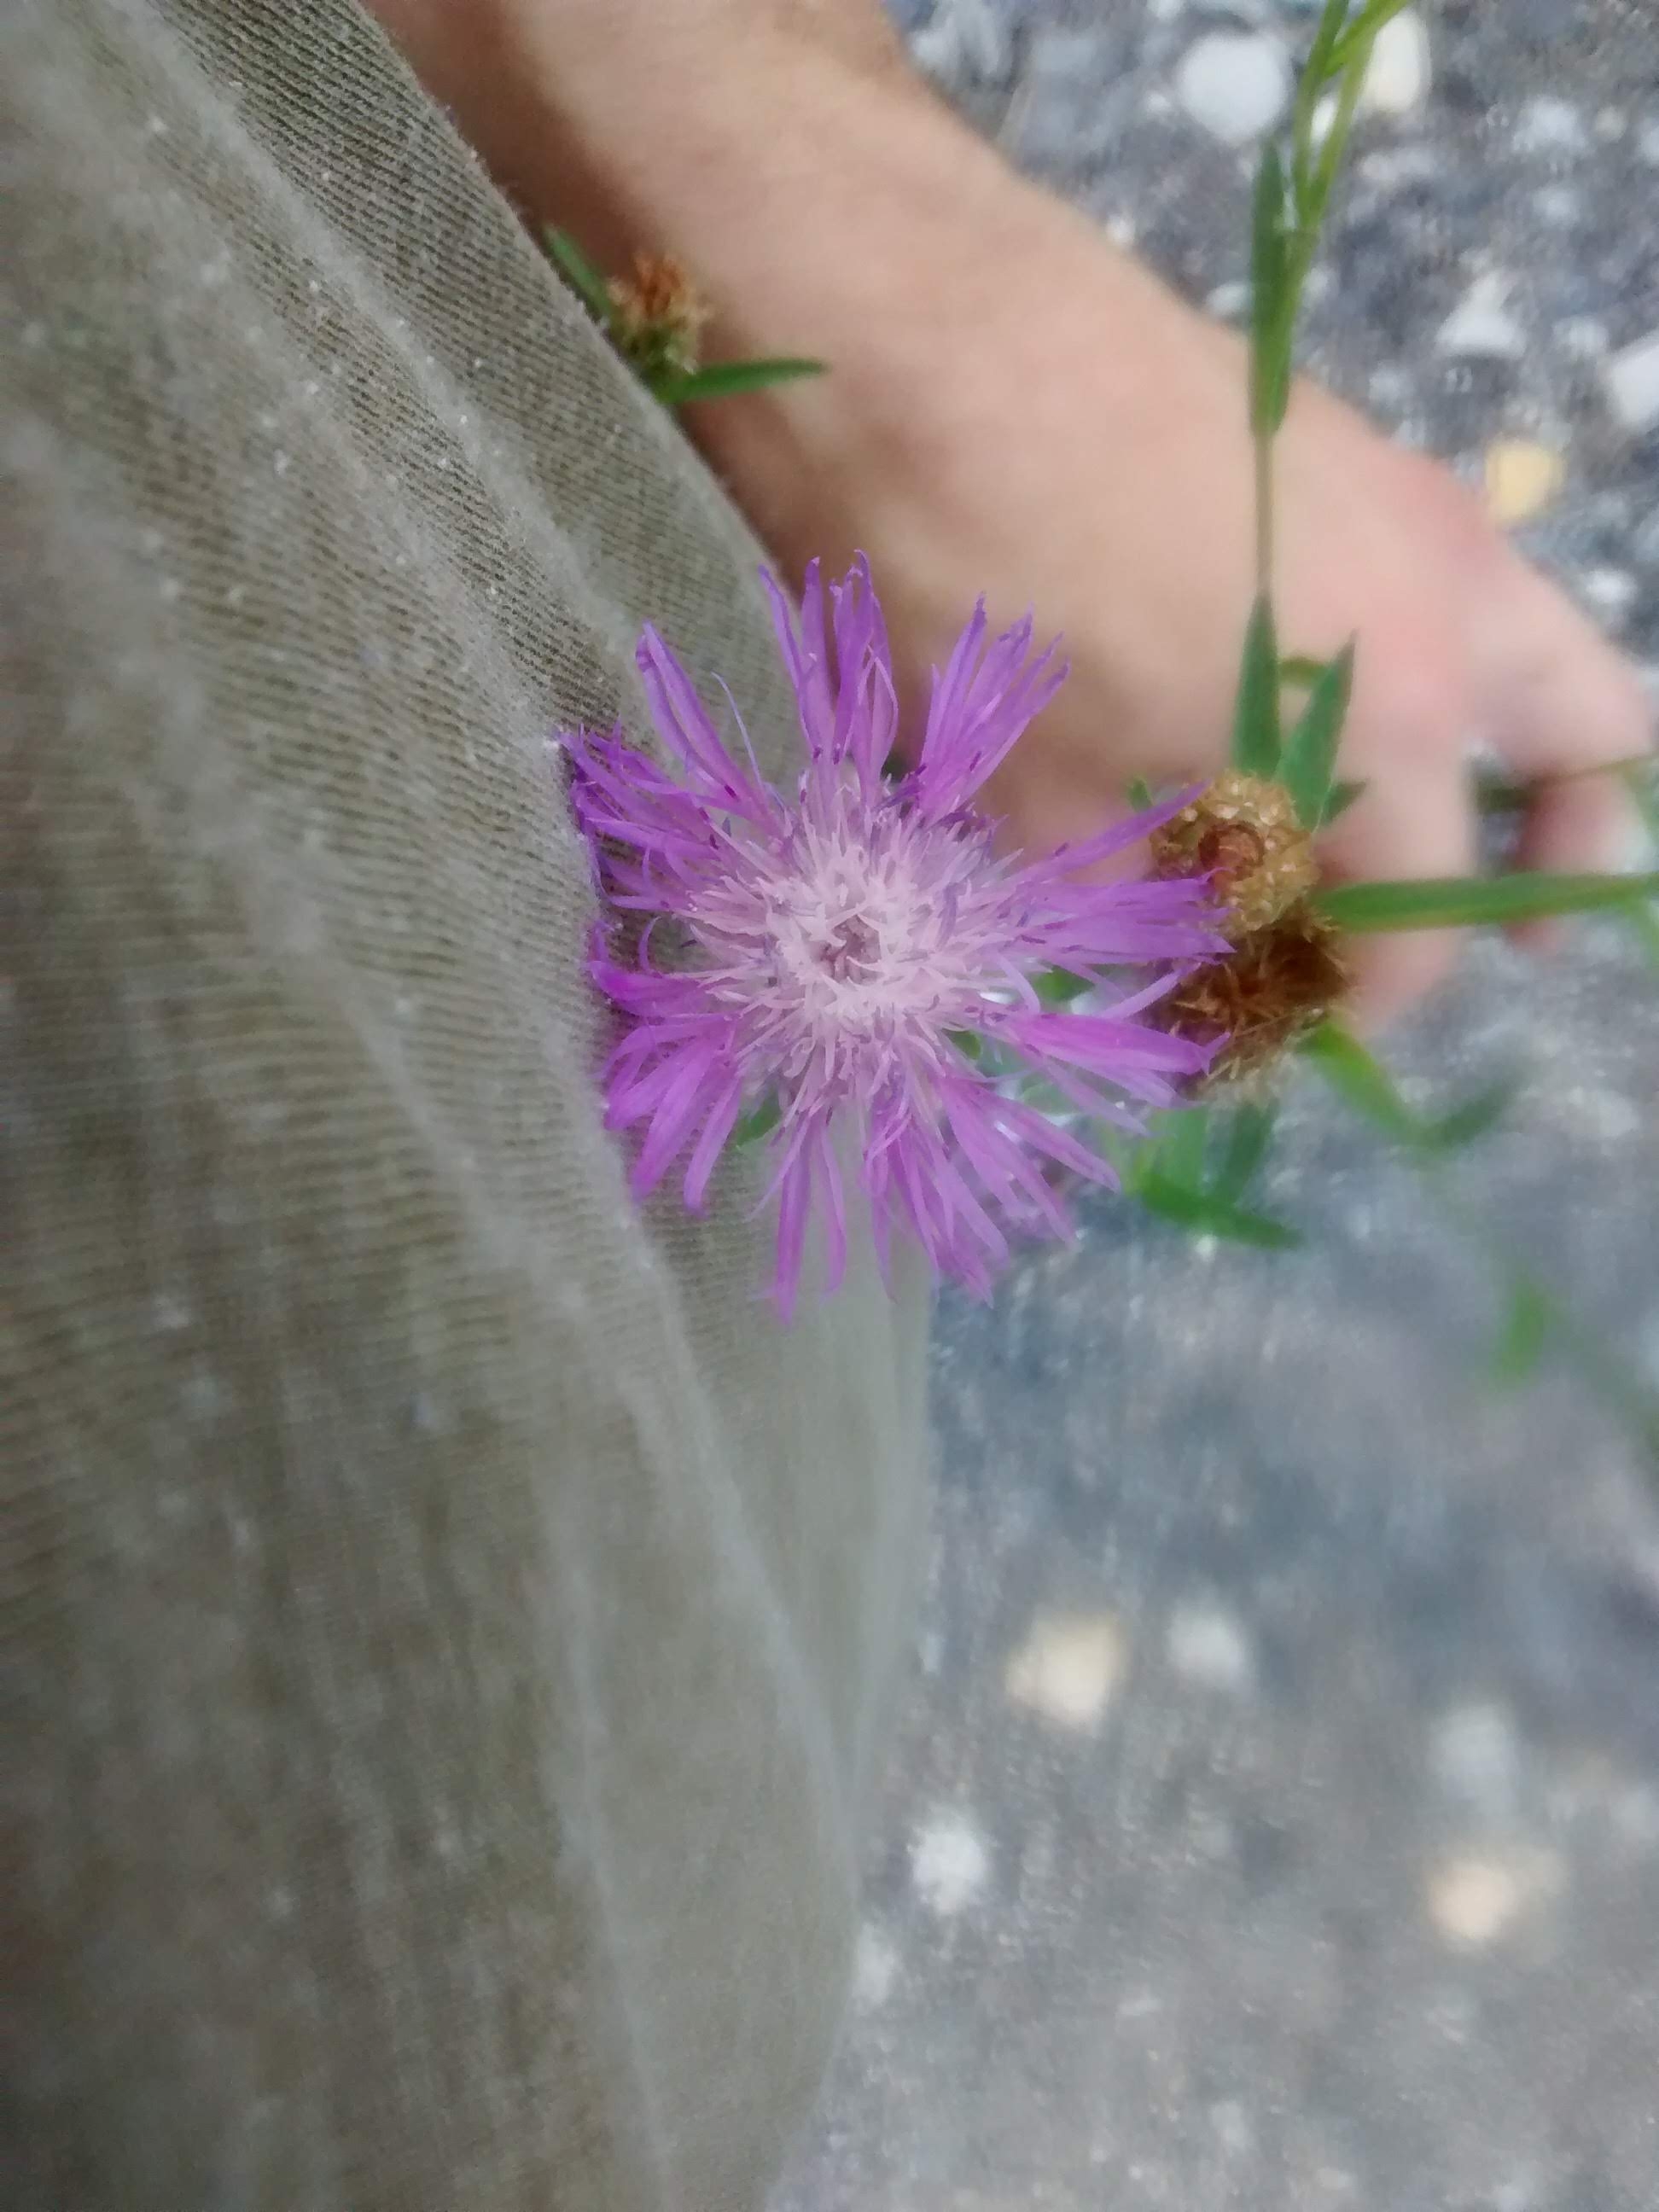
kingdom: Plantae
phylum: Tracheophyta
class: Magnoliopsida
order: Asterales
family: Asteraceae
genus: Centaurea
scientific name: Centaurea nigrescens
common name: Knapweed
